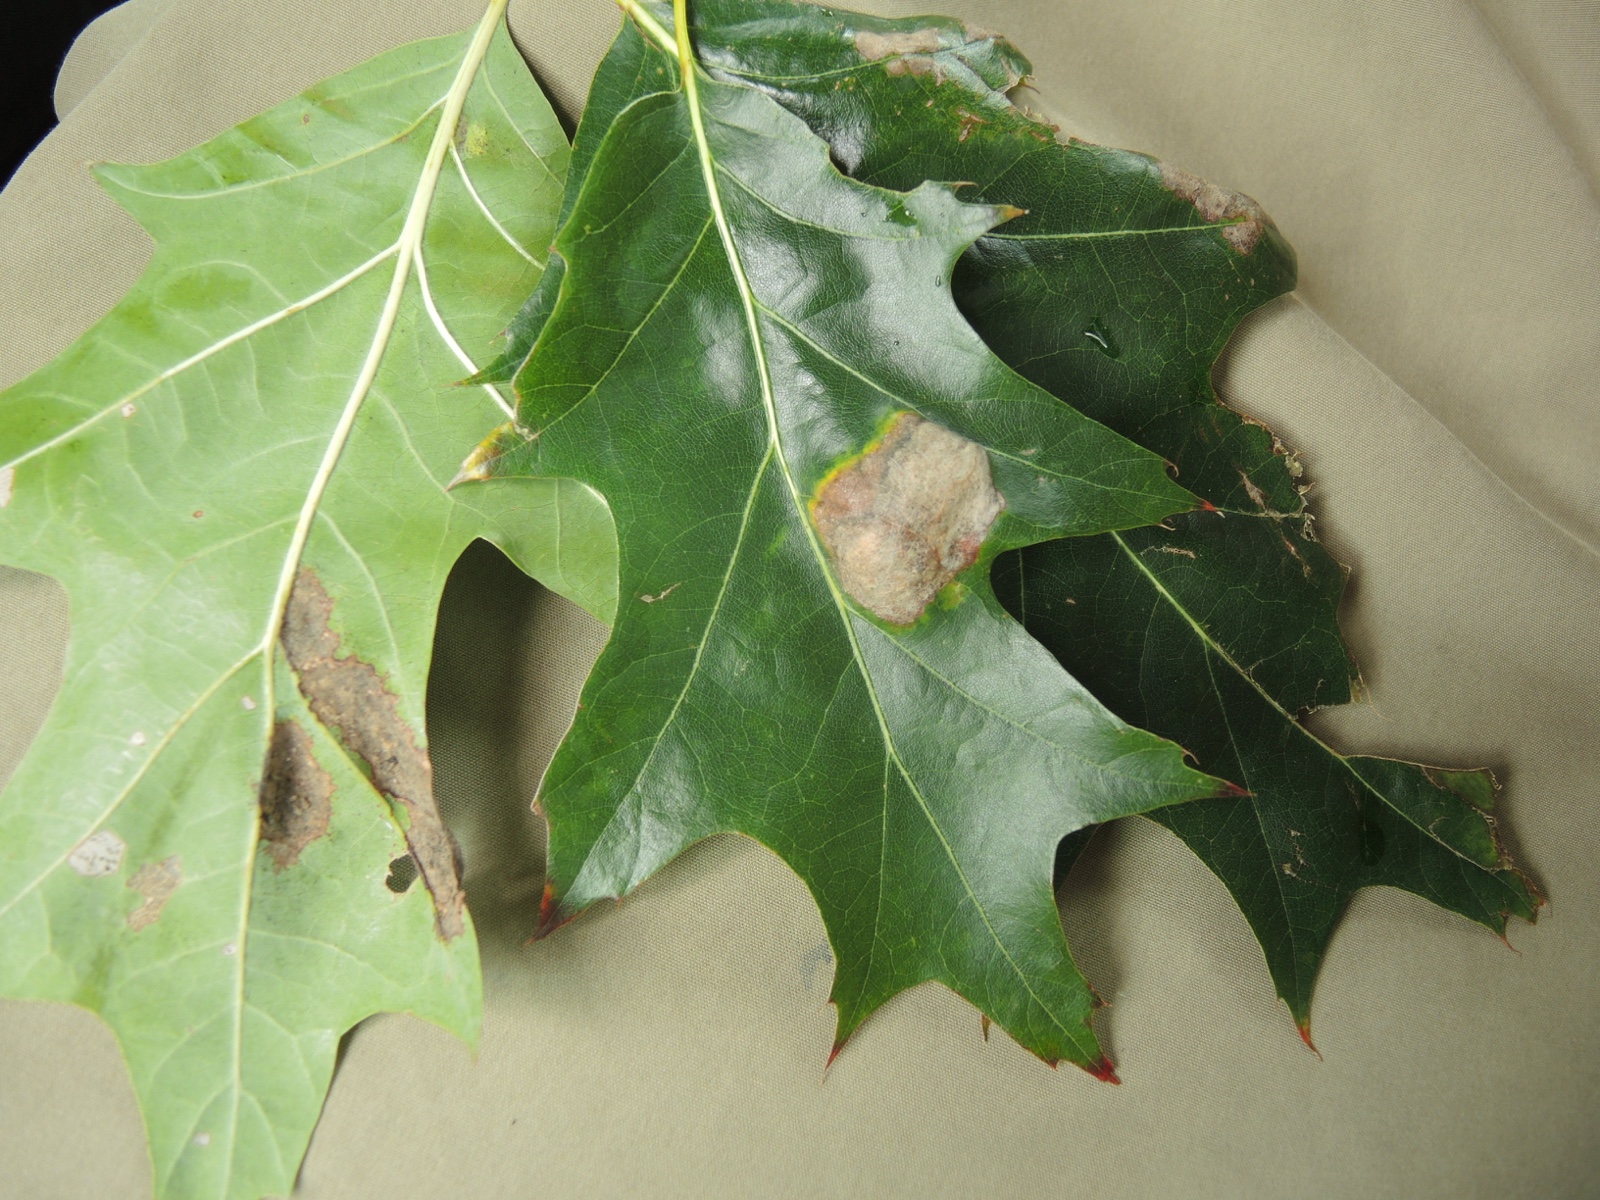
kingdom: Fungi
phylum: Ascomycota
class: Taphrinomycetes
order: Taphrinales
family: Taphrinaceae
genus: Taphrina
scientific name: Taphrina caerulescens
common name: Oak leaf blister
